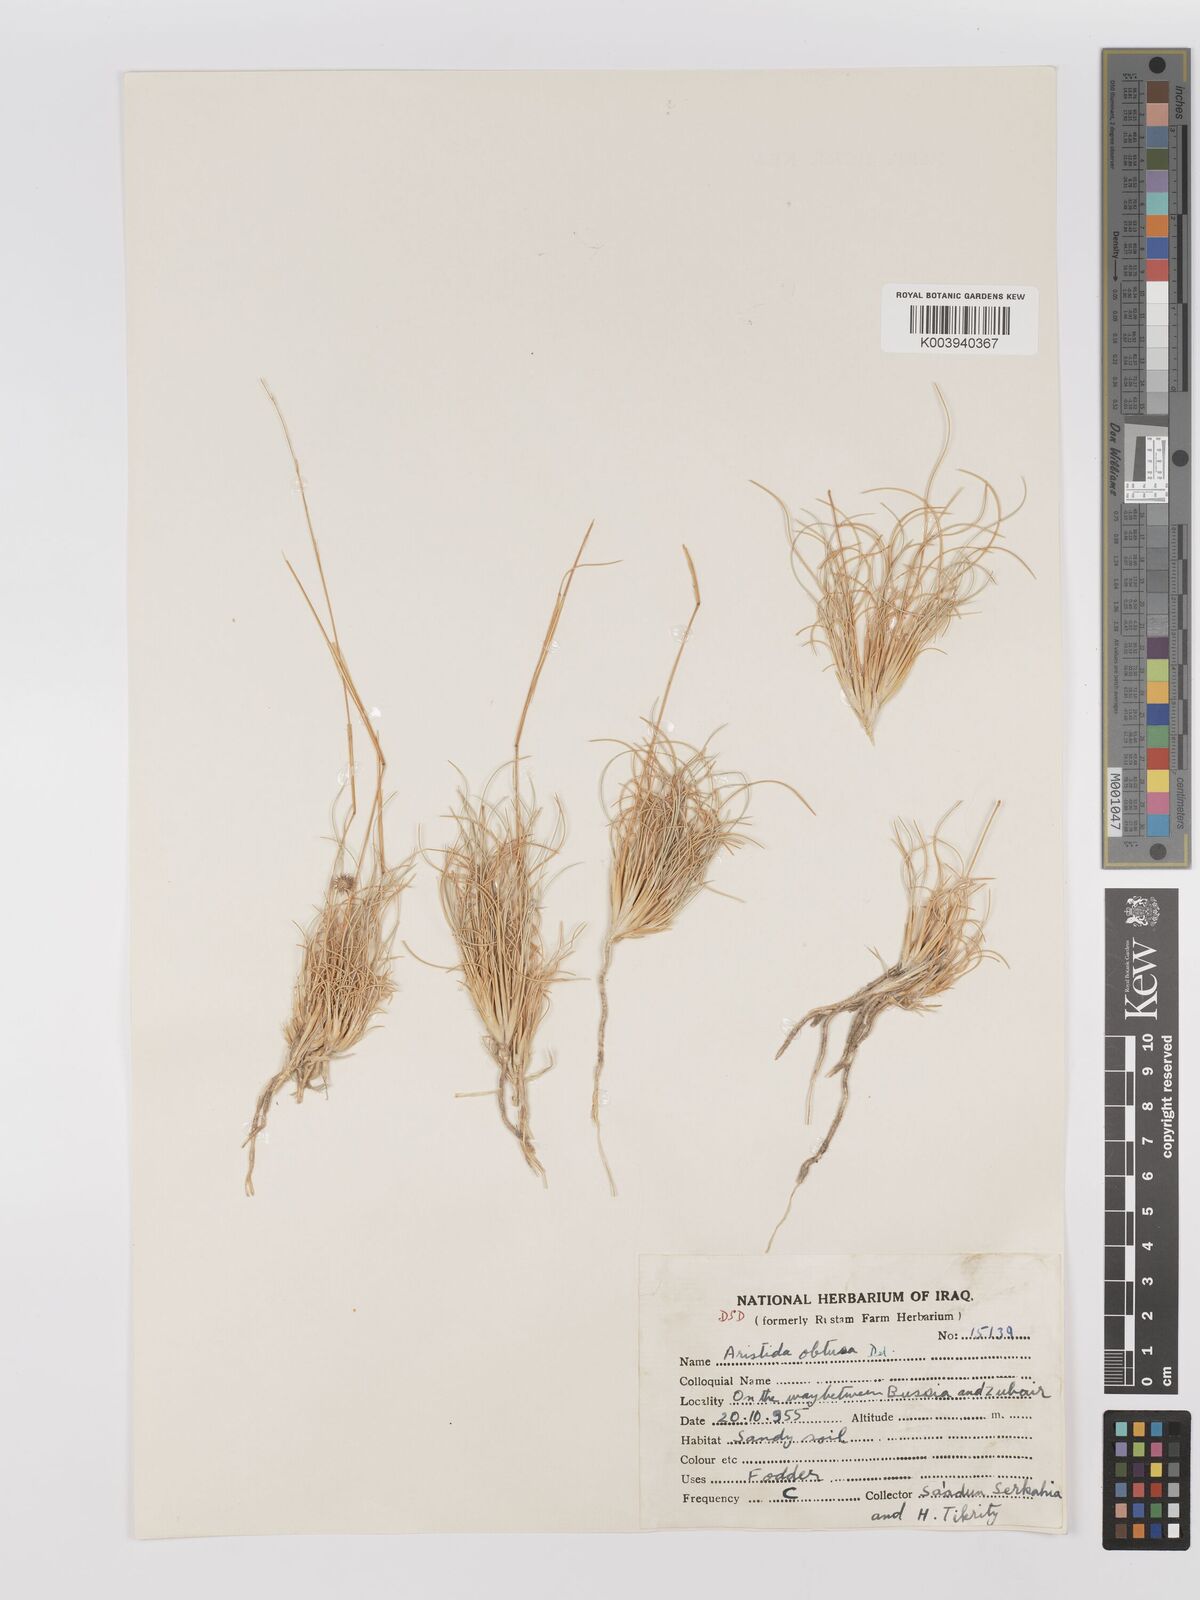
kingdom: Plantae
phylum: Tracheophyta
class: Liliopsida
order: Poales
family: Poaceae
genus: Stipagrostis
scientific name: Stipagrostis obtusa
